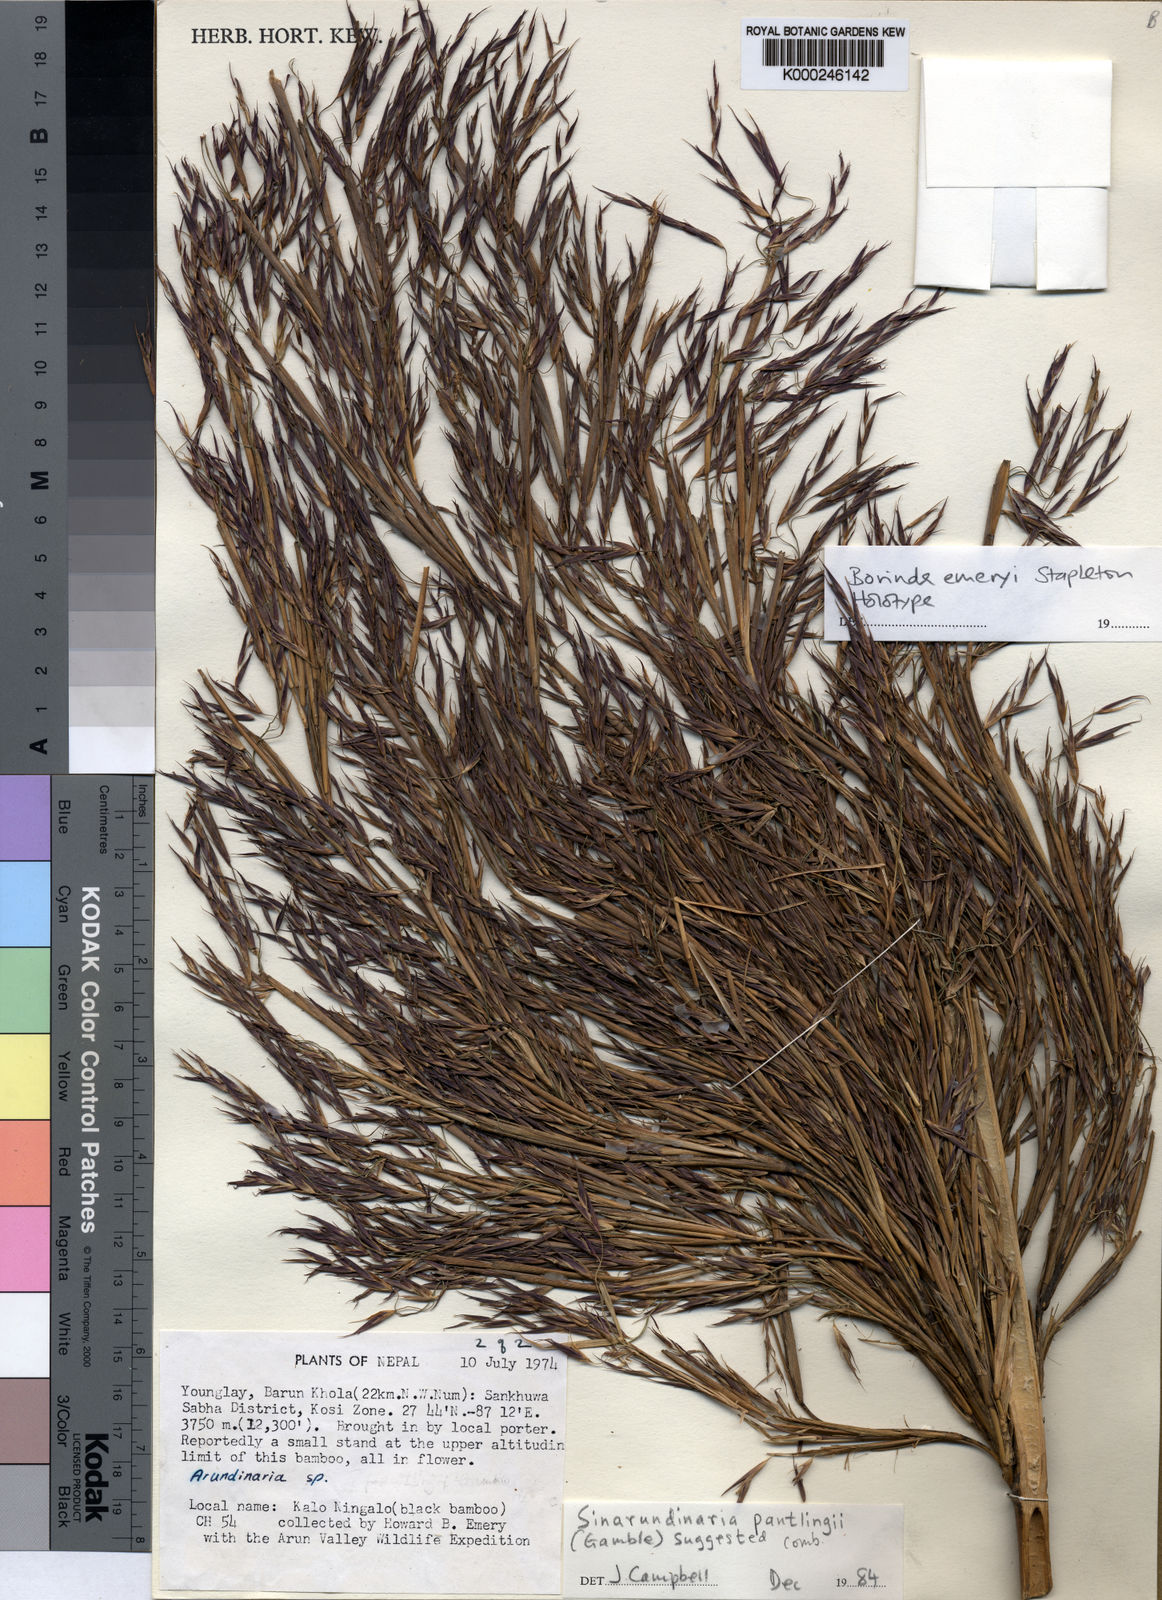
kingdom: Plantae
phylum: Tracheophyta
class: Liliopsida
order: Poales
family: Poaceae
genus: Yushania
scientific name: Yushania emeryi
